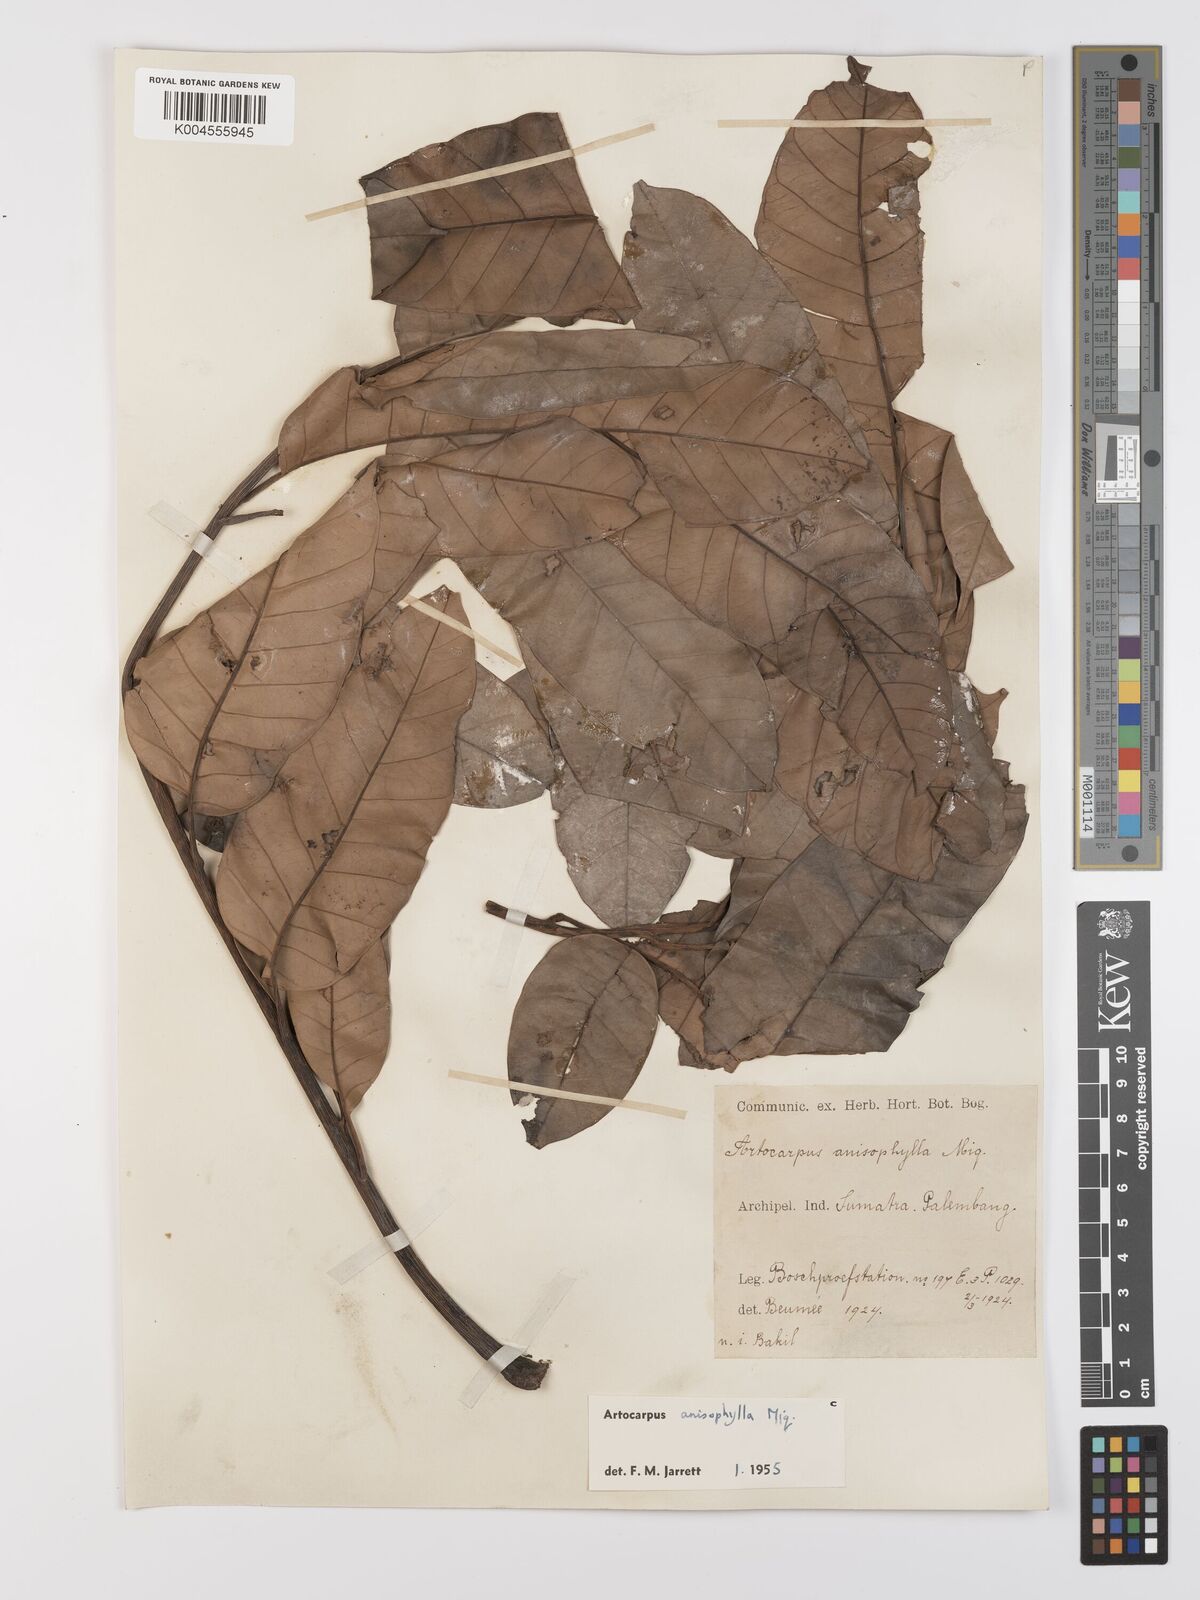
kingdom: Plantae
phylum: Tracheophyta
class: Magnoliopsida
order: Rosales
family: Moraceae
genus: Artocarpus
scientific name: Artocarpus anisophyllus
